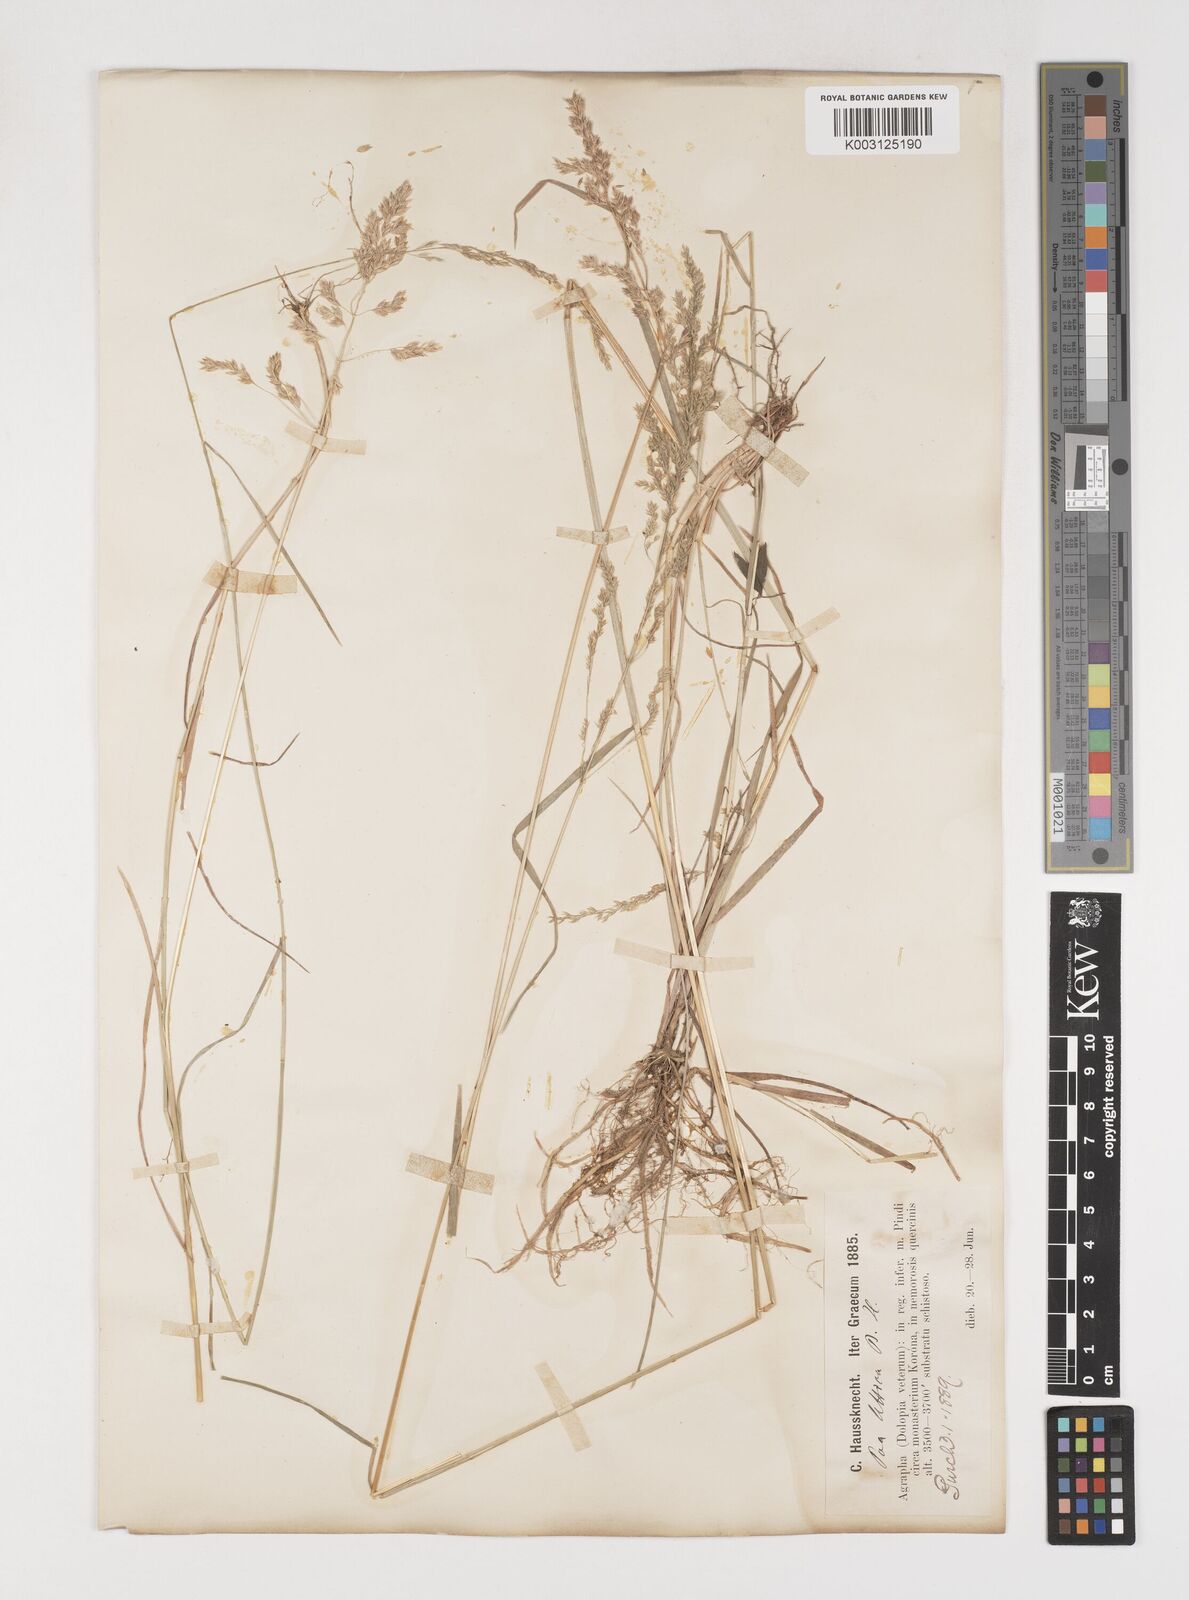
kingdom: Plantae
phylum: Tracheophyta
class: Liliopsida
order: Poales
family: Poaceae
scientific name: Poaceae
